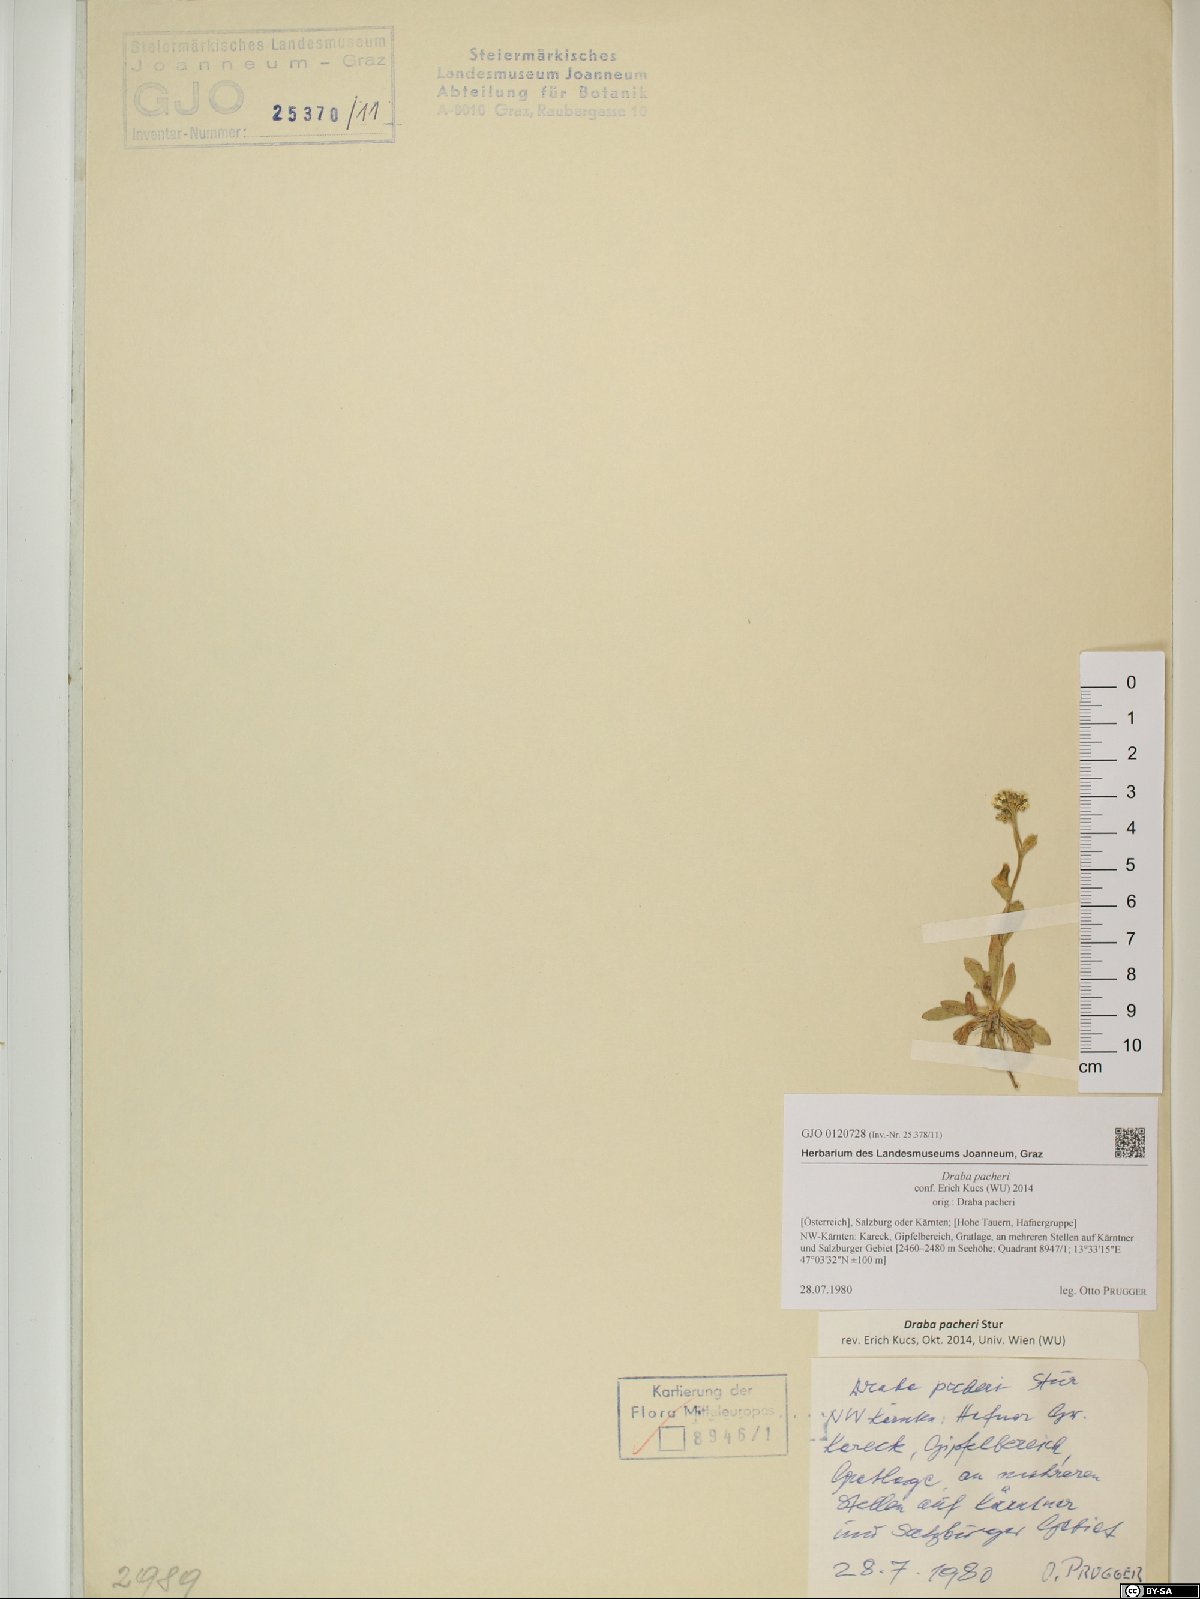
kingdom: Plantae
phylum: Tracheophyta
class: Magnoliopsida
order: Brassicales
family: Brassicaceae
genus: Draba
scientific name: Draba pacheri
